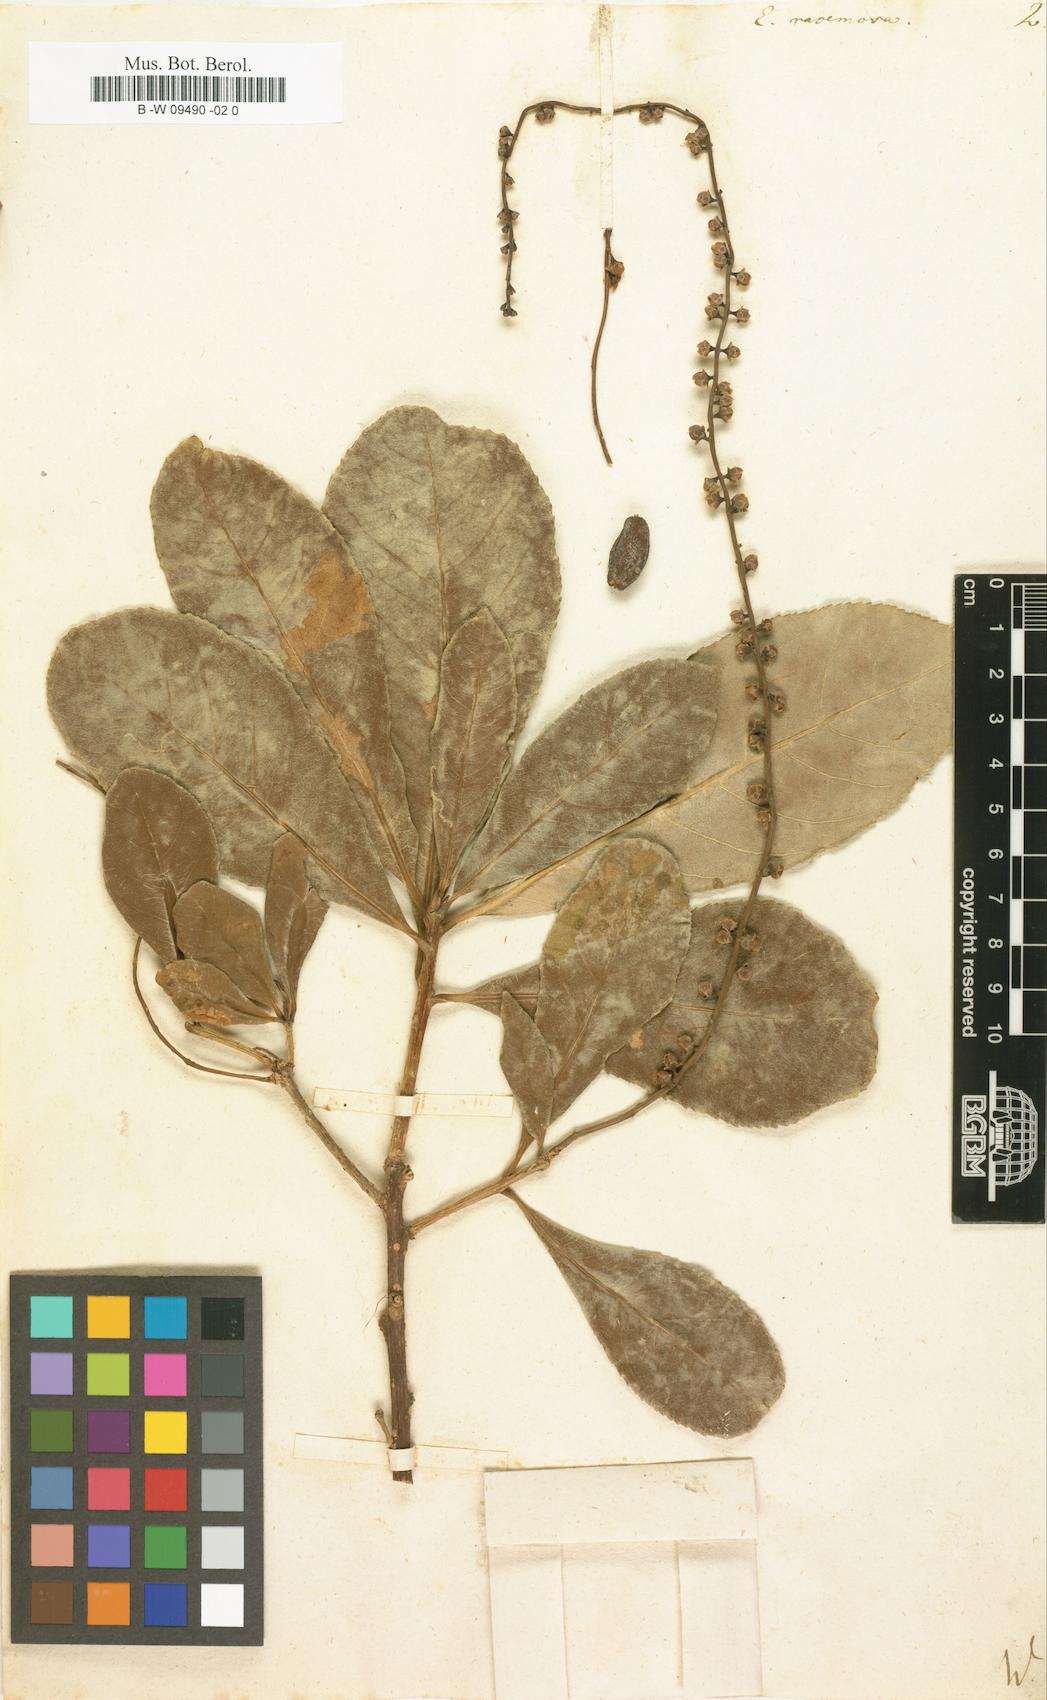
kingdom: Plantae
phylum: Tracheophyta
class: Magnoliopsida
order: Myrtales
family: Myrtaceae
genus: Eugenia
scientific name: Eugenia biflora
